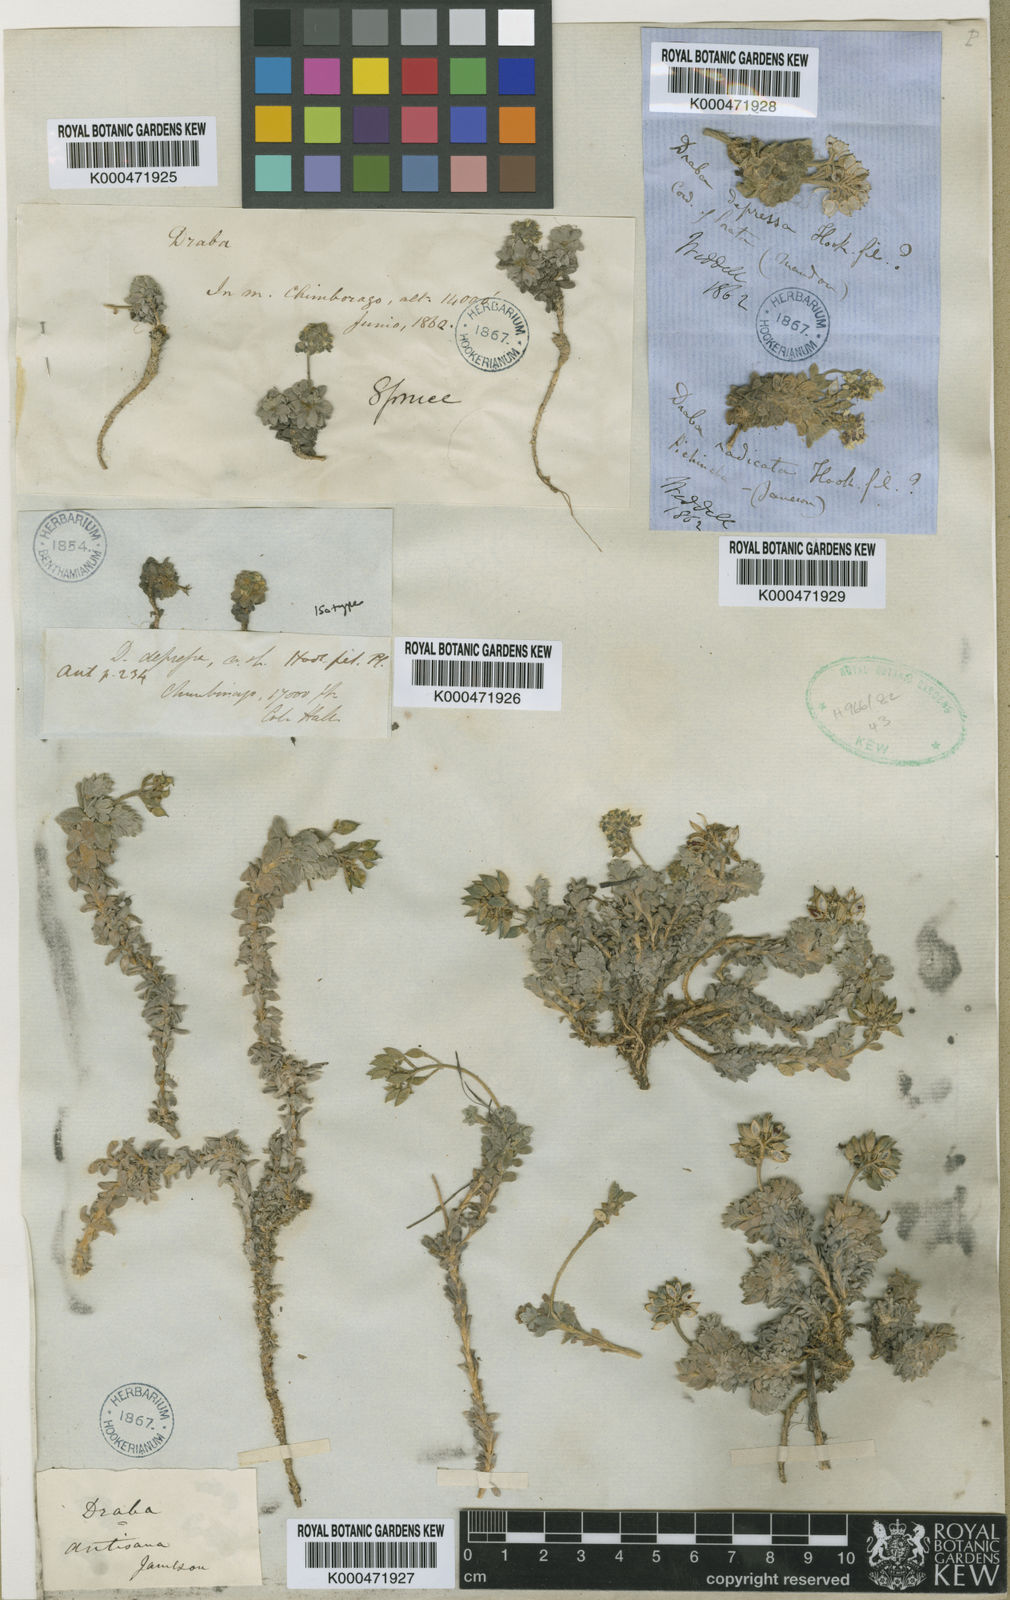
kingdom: Plantae
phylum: Tracheophyta
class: Magnoliopsida
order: Brassicales
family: Brassicaceae
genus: Draba
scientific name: Draba depressa
